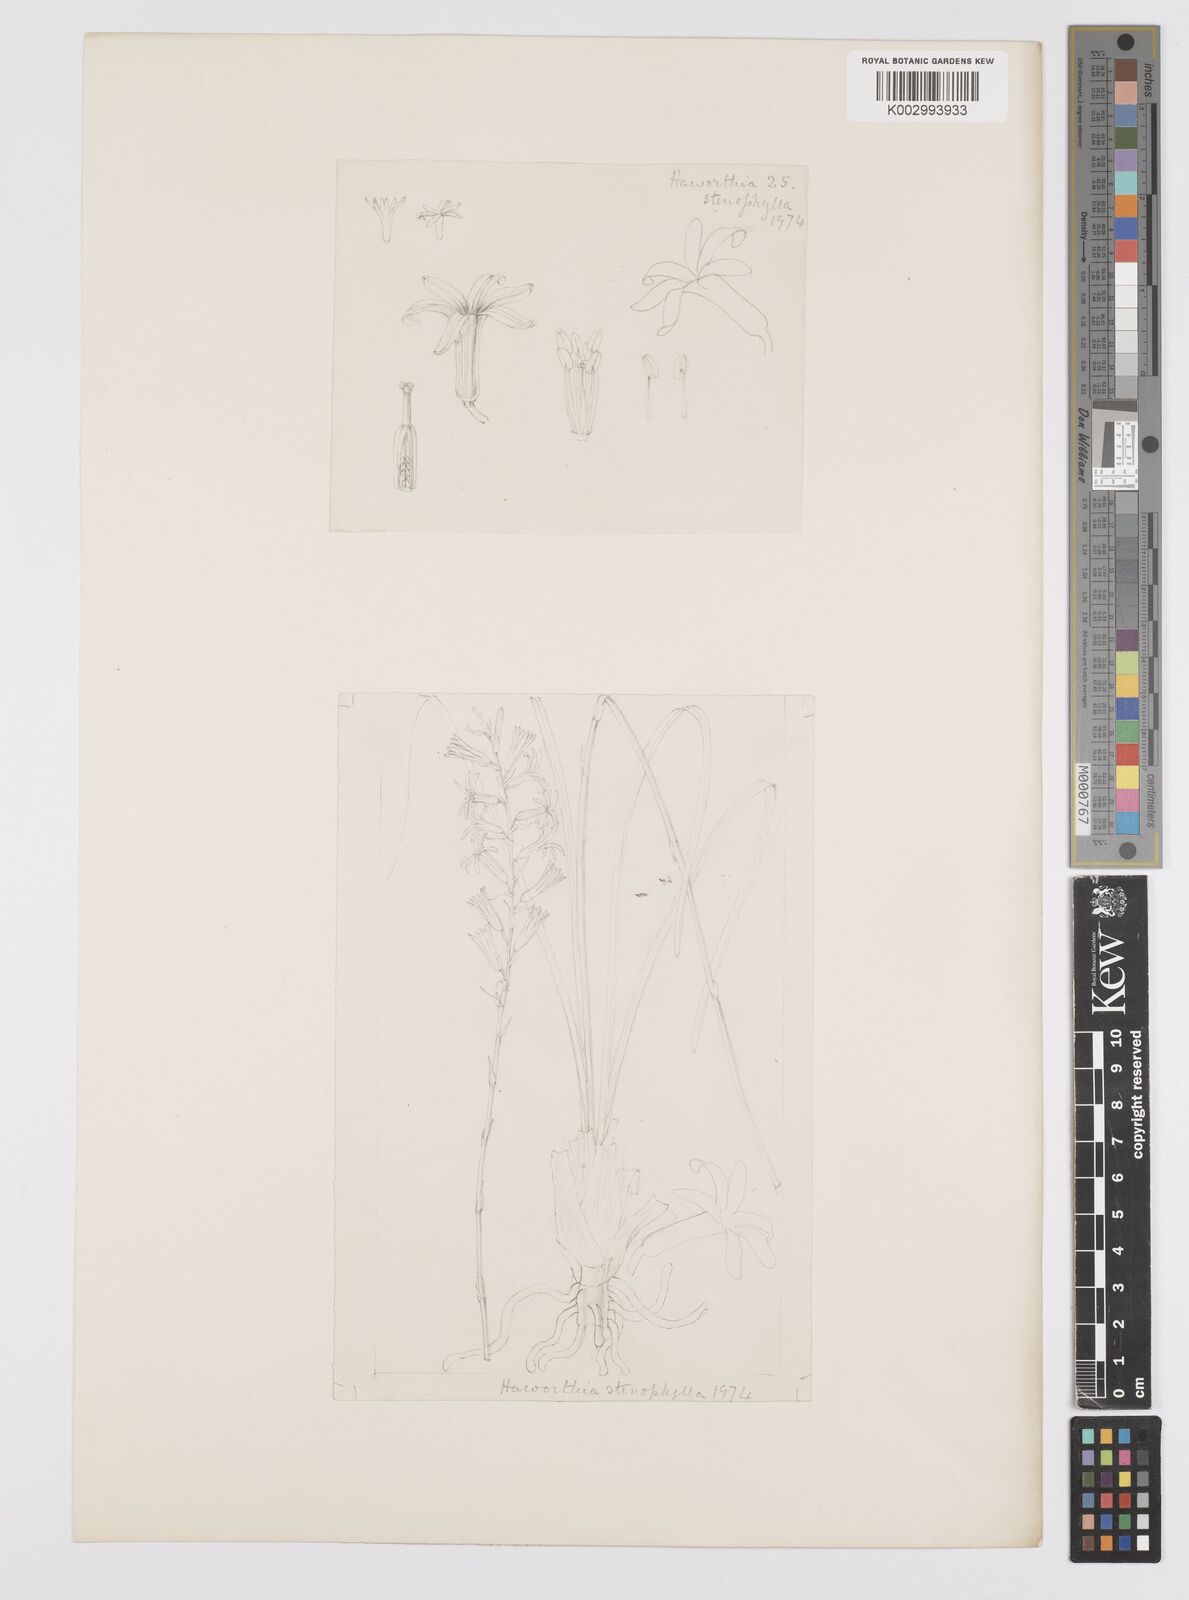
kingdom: Plantae
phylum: Tracheophyta
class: Liliopsida
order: Asparagales
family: Asphodelaceae
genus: Aloe
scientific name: Aloe welwitschii
